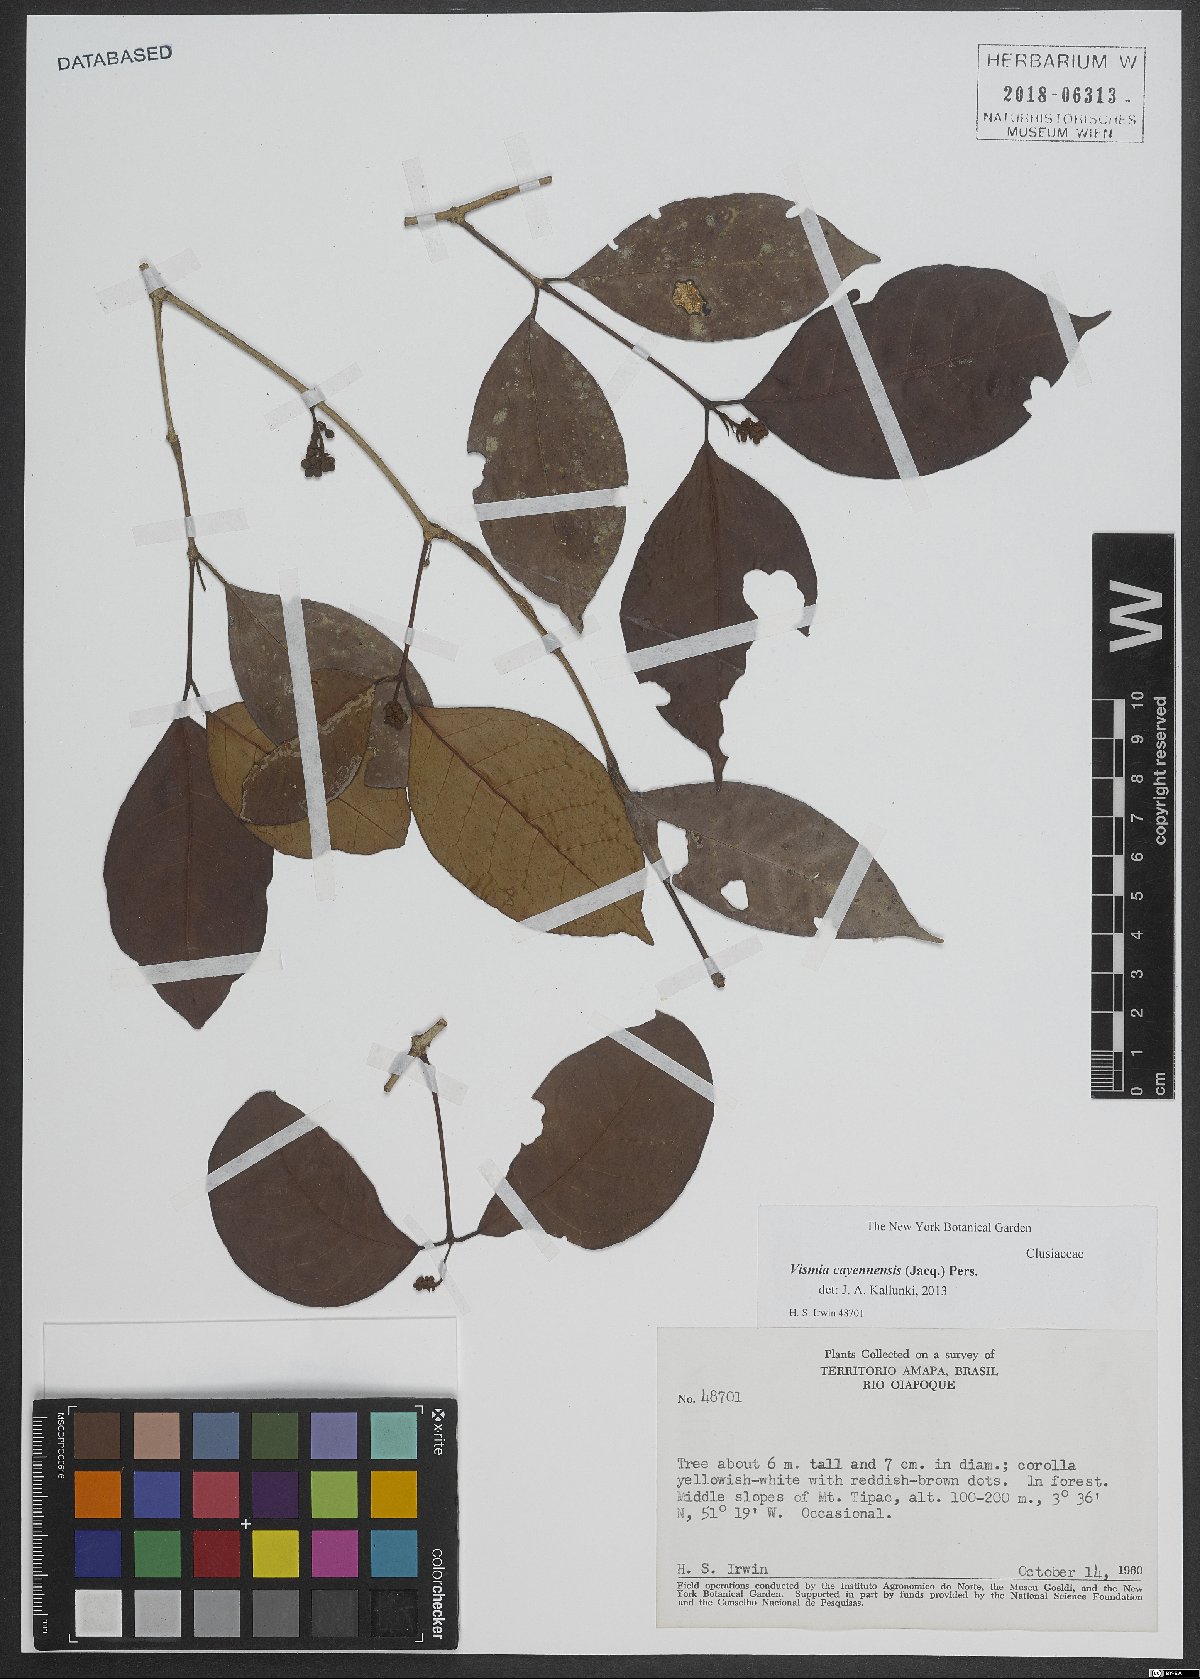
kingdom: Plantae
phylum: Tracheophyta
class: Magnoliopsida
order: Malpighiales
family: Hypericaceae
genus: Vismia
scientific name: Vismia cayennensis
